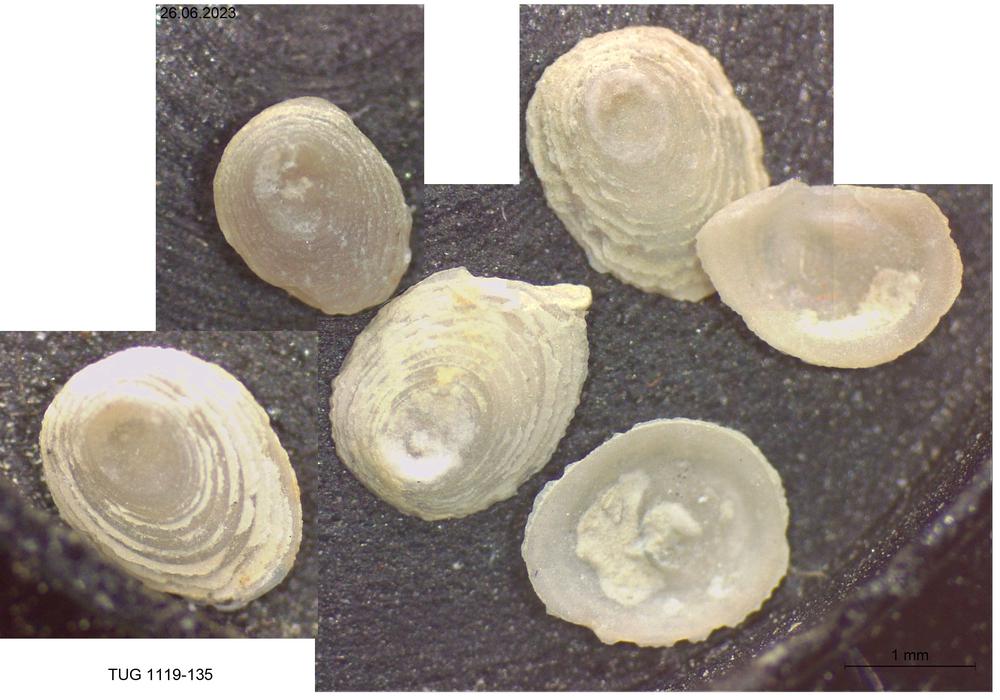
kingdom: Animalia
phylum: Brachiopoda
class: Craniata
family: Craniopsidae
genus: Craniops
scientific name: Craniops
